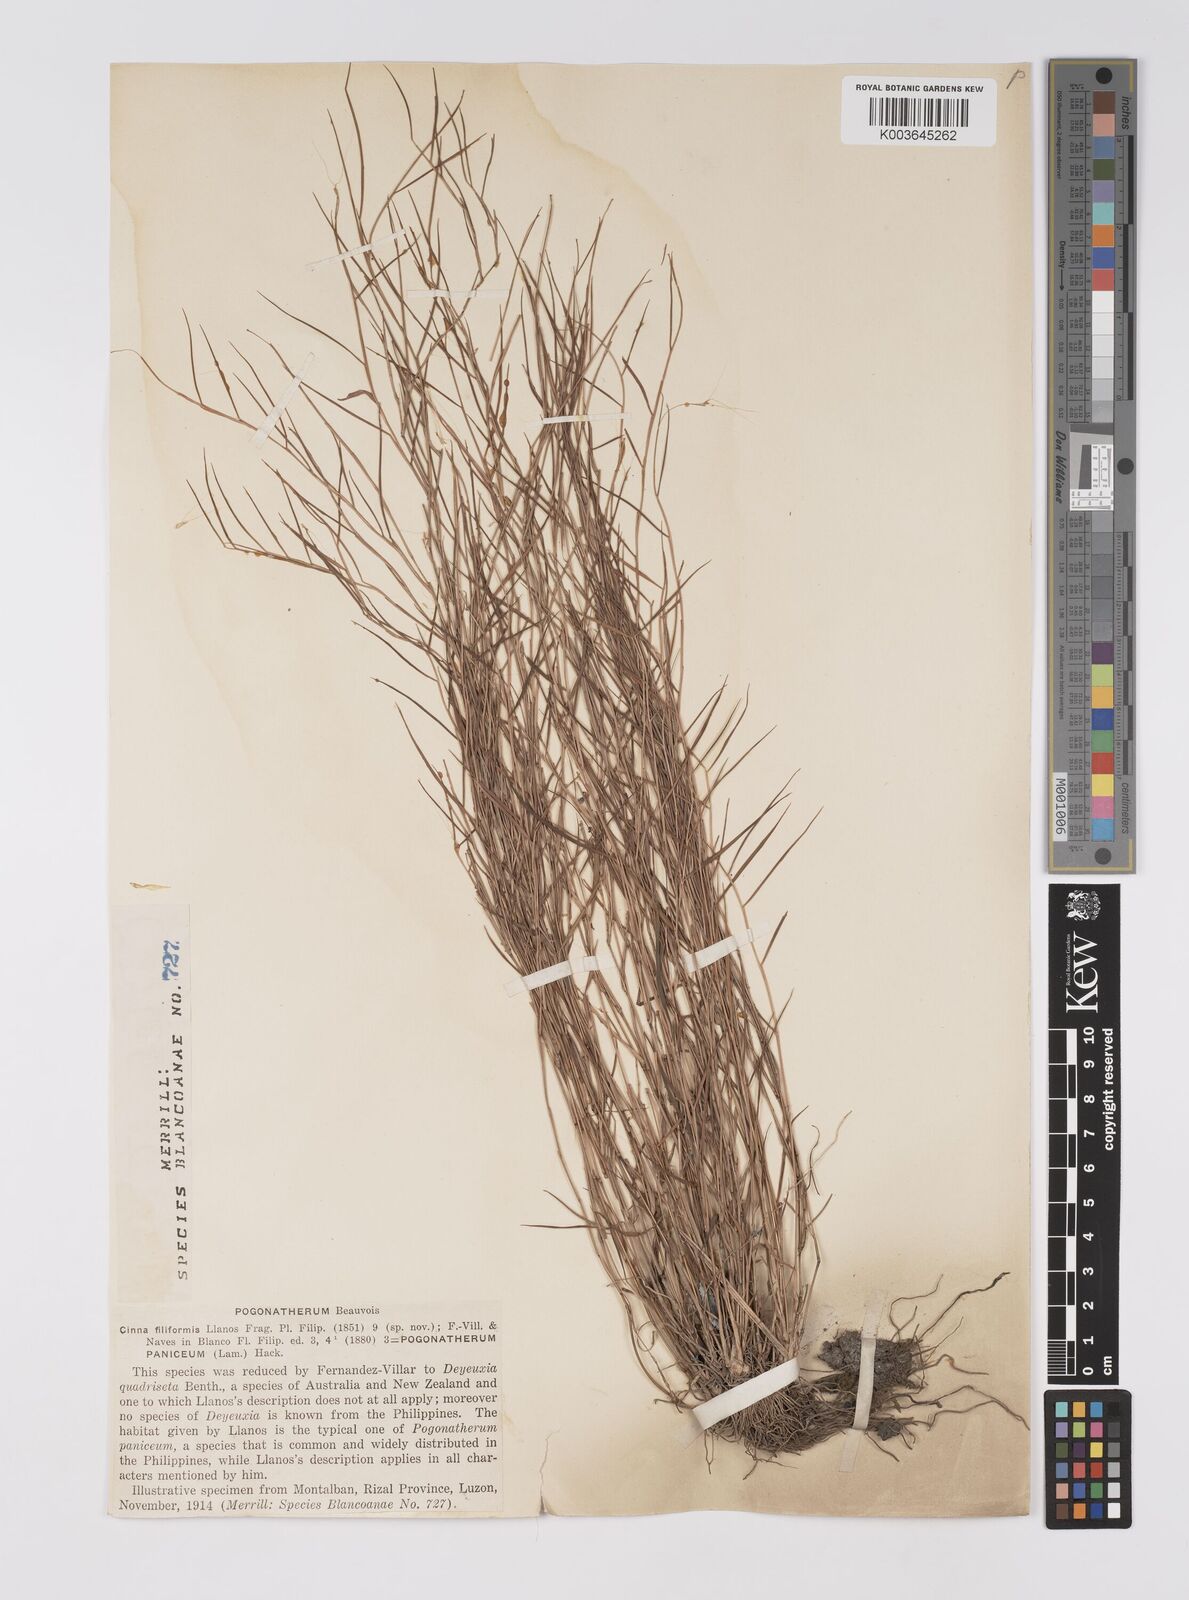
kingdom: Plantae
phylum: Tracheophyta
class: Liliopsida
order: Poales
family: Poaceae
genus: Pogonatherum
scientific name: Pogonatherum paniceum
